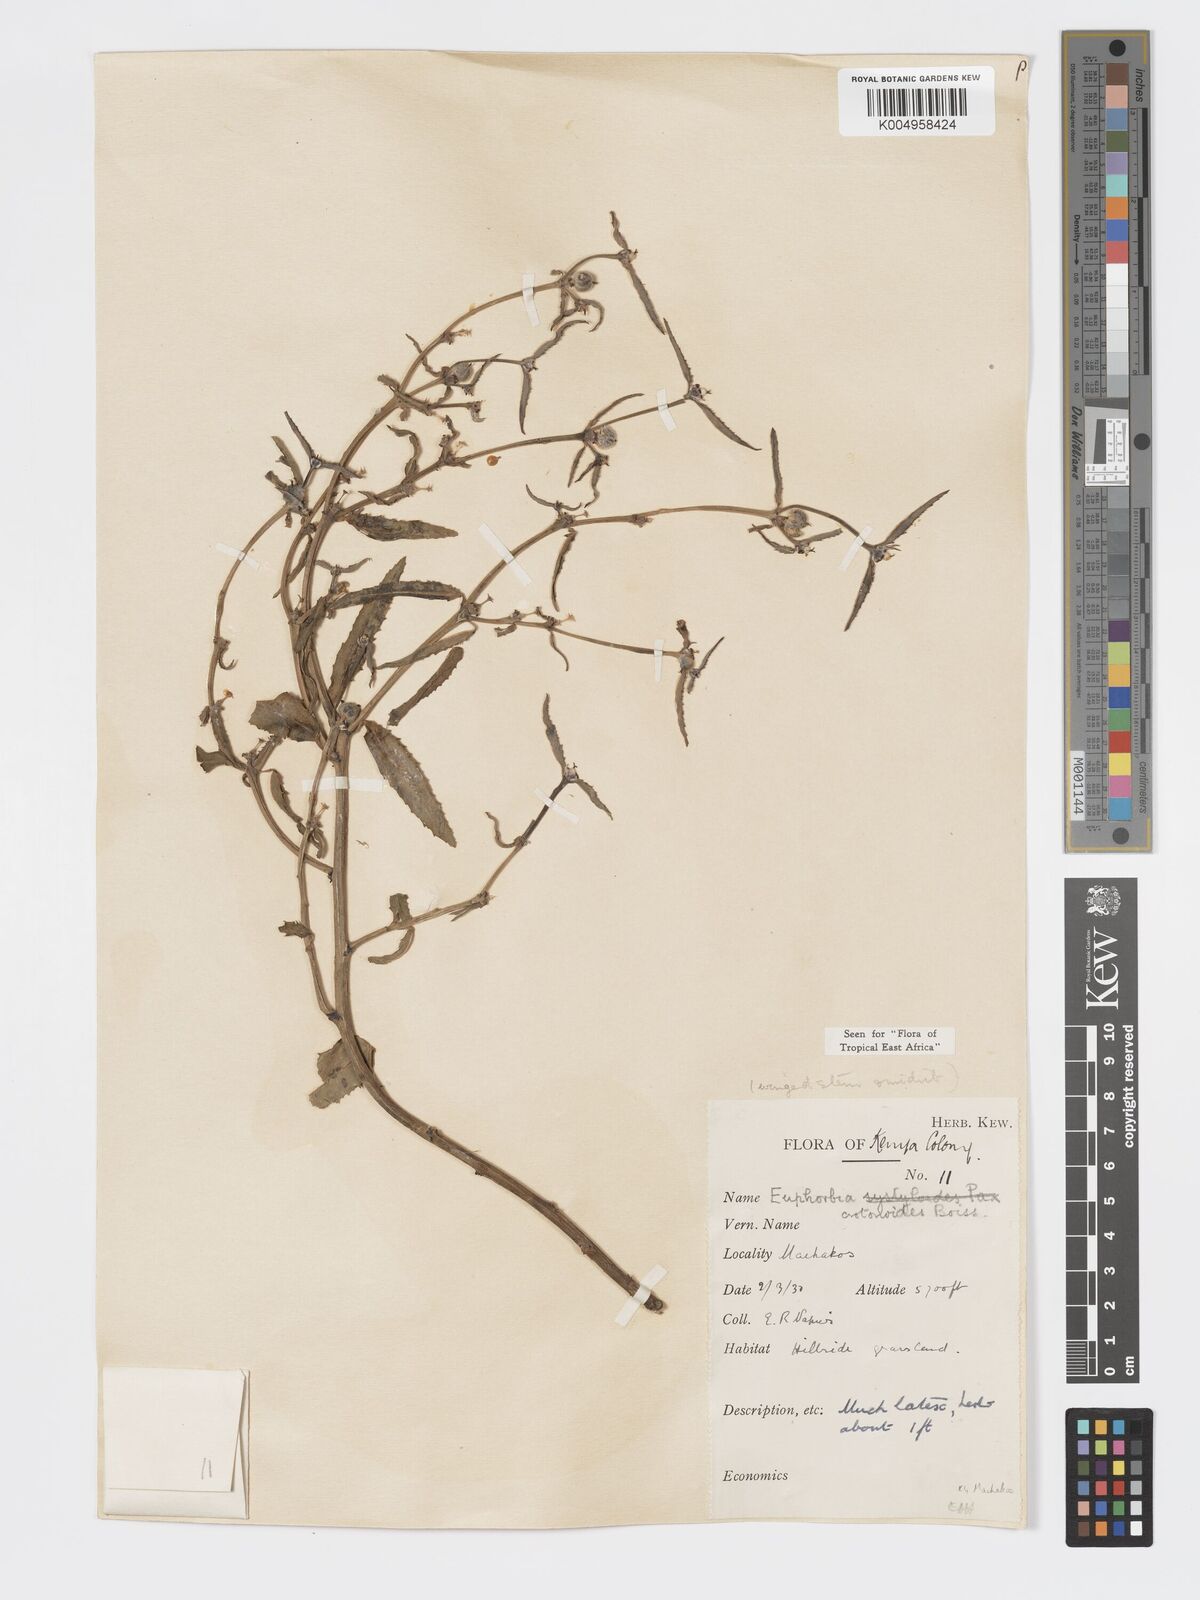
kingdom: Plantae
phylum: Tracheophyta
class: Magnoliopsida
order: Malpighiales
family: Euphorbiaceae
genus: Euphorbia
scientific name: Euphorbia crotonoides
